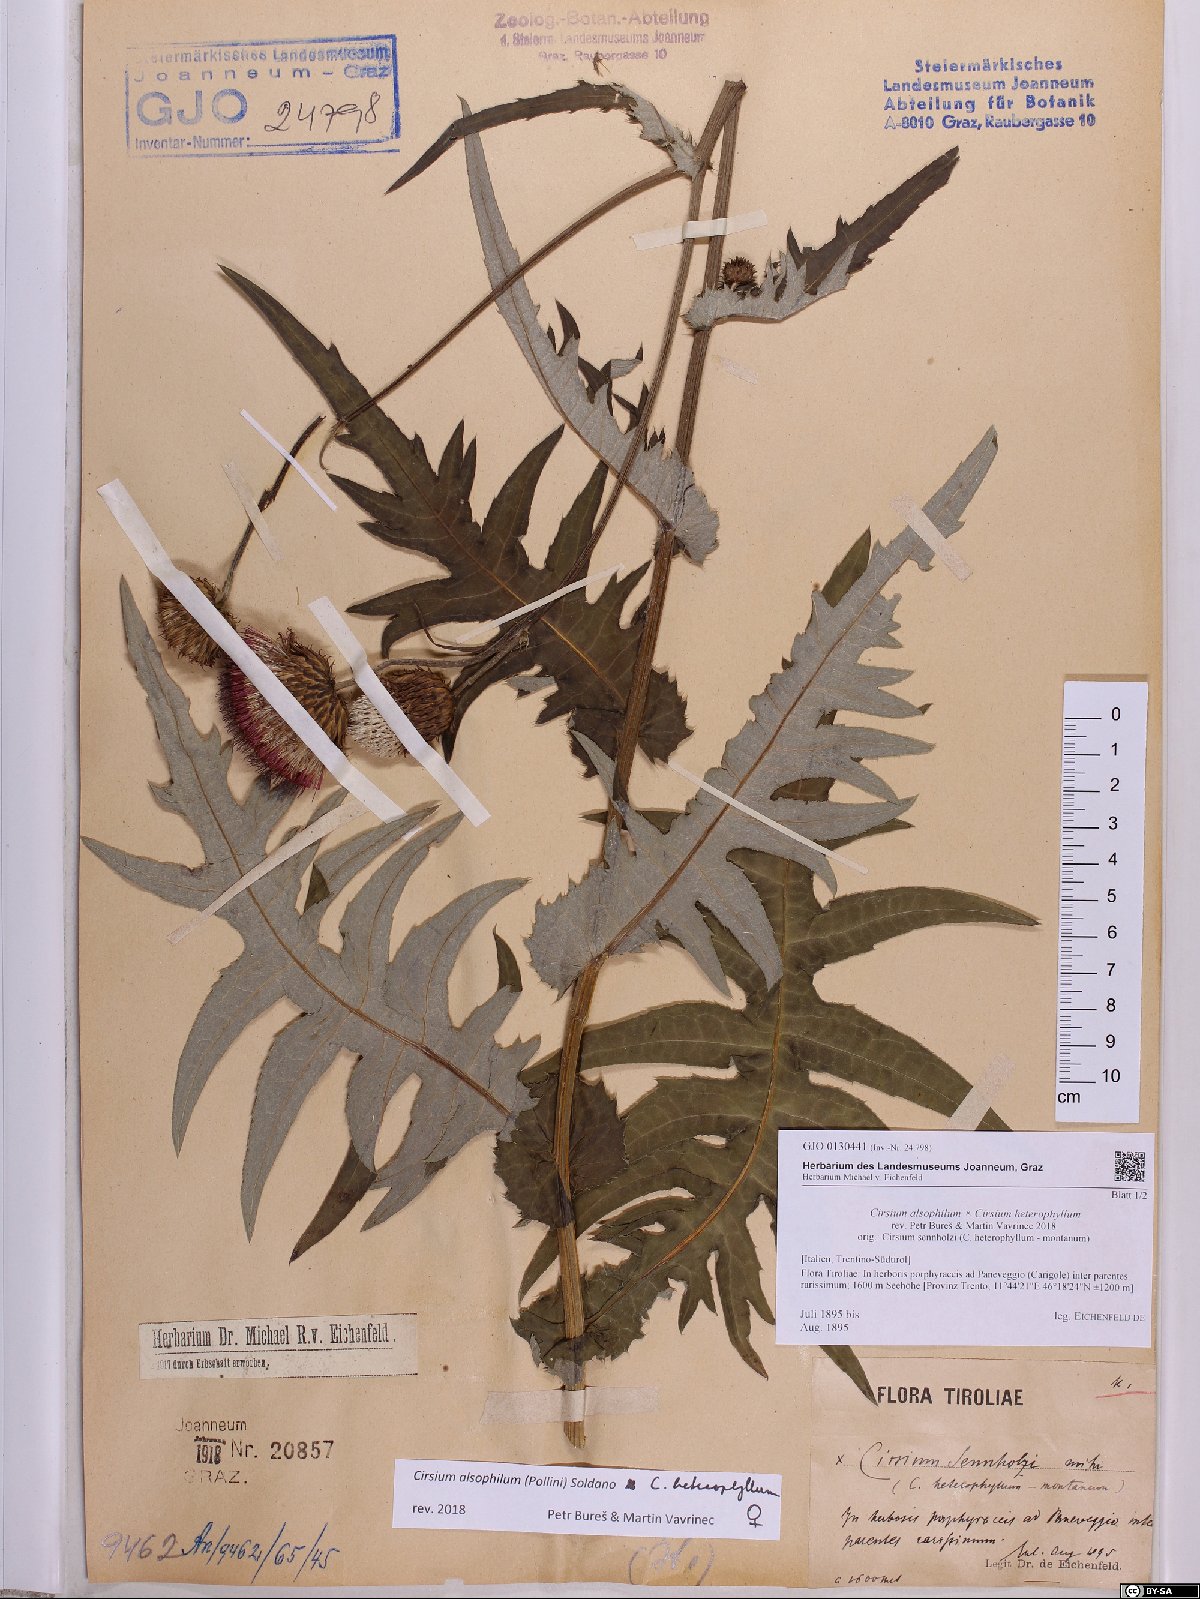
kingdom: Plantae
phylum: Tracheophyta
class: Magnoliopsida
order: Asterales
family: Asteraceae
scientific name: Asteraceae
